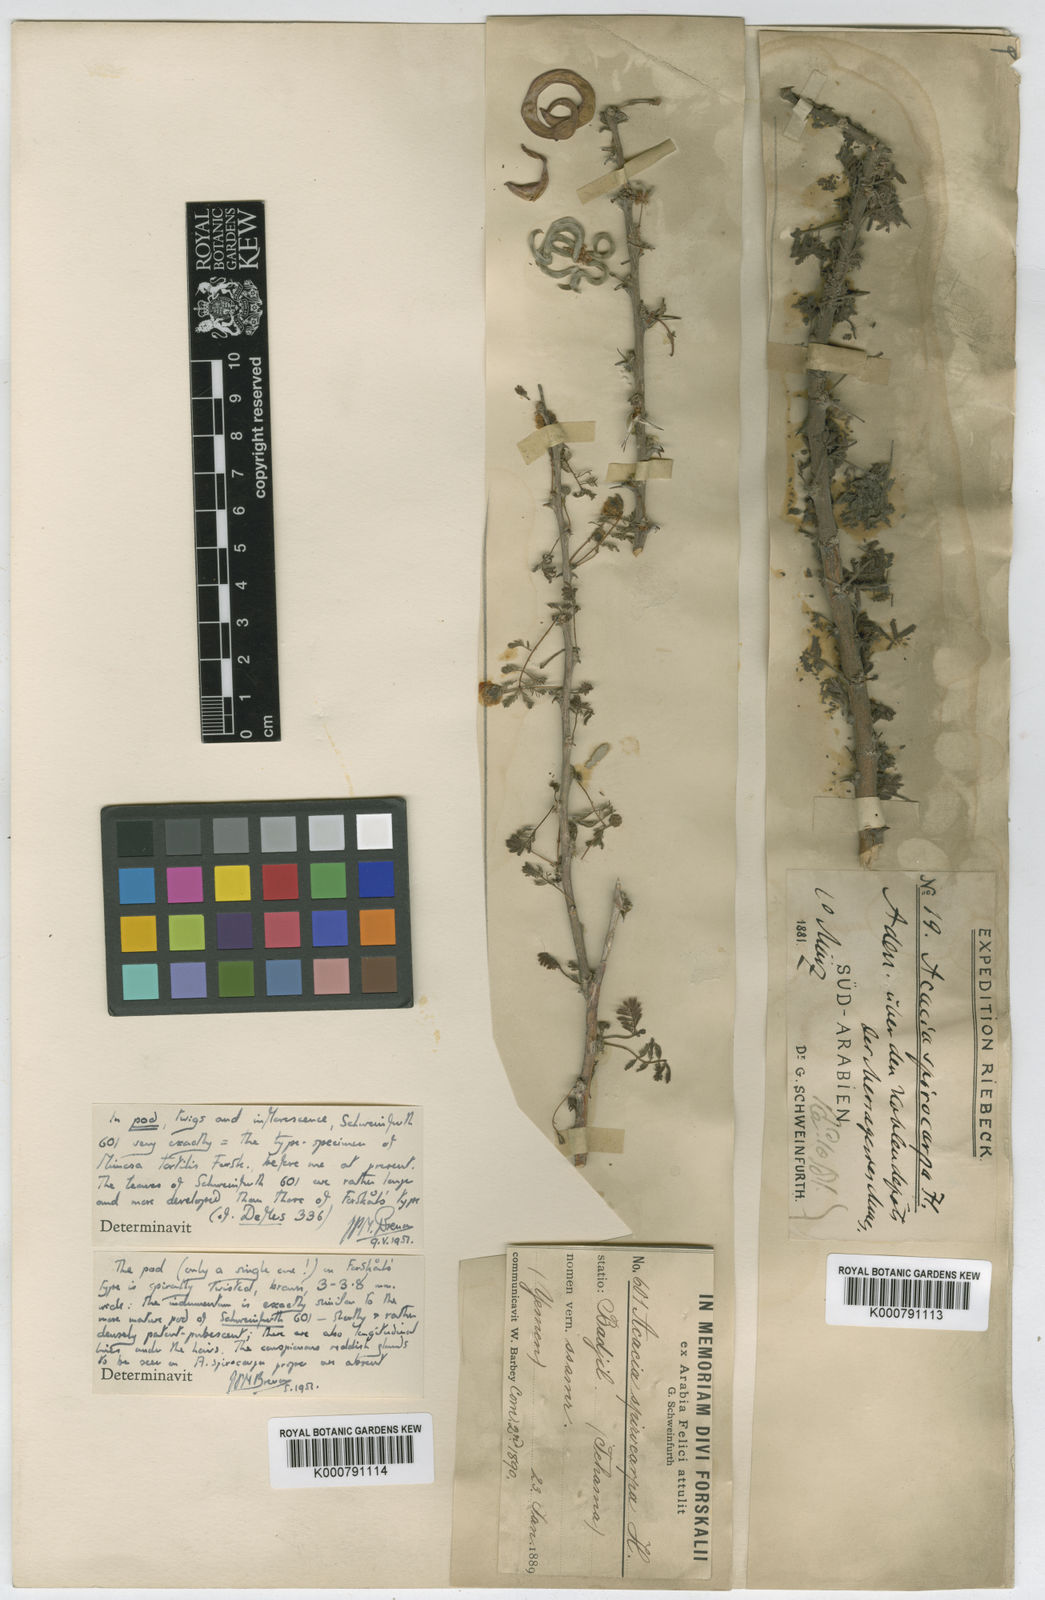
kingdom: Plantae
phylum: Tracheophyta
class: Magnoliopsida
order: Fabales
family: Fabaceae
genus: Vachellia
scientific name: Vachellia tortilis
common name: Umbrella thorn acacia
